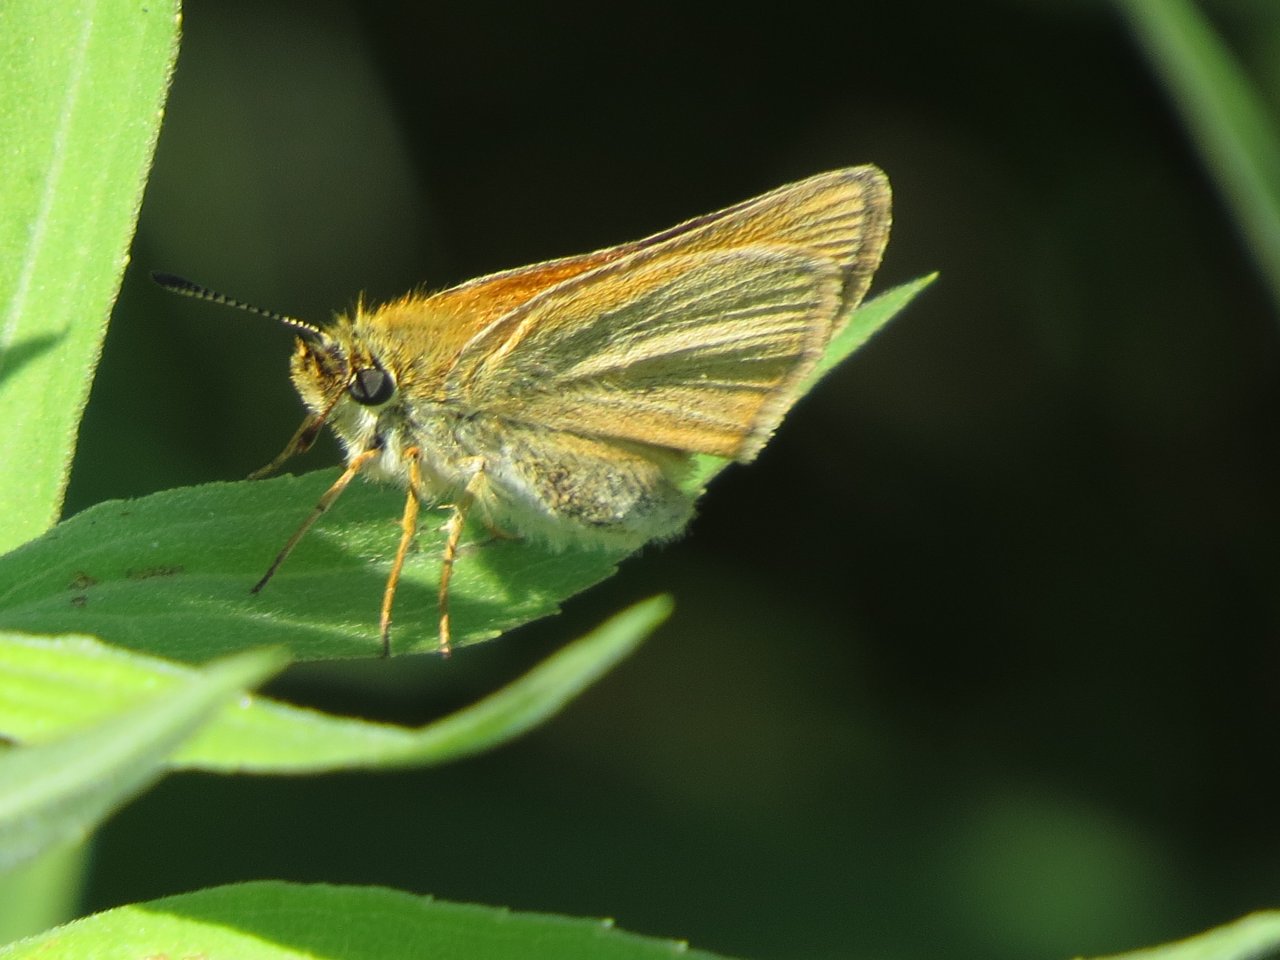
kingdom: Animalia
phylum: Arthropoda
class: Insecta
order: Lepidoptera
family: Hesperiidae
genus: Thymelicus
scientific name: Thymelicus lineola
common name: European Skipper
